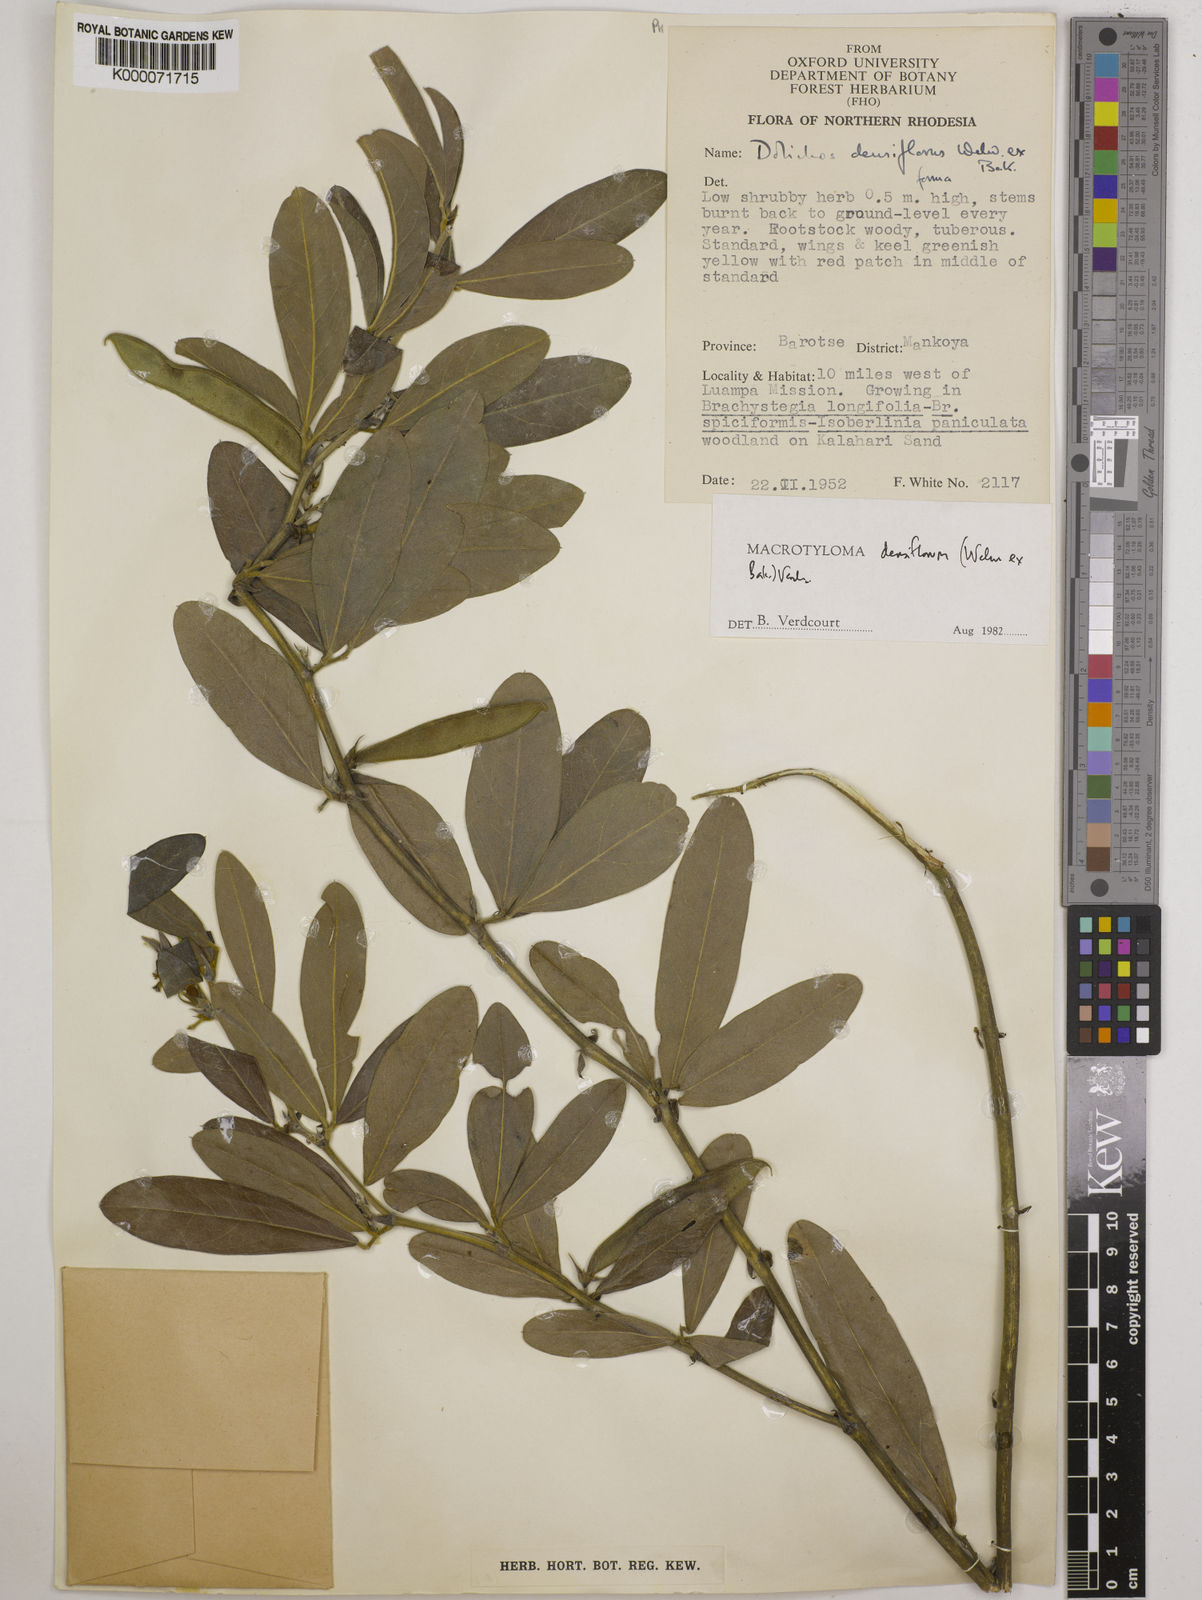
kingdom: Plantae
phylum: Tracheophyta
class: Magnoliopsida
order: Fabales
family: Fabaceae
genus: Macrotyloma
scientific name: Macrotyloma densiflorum
